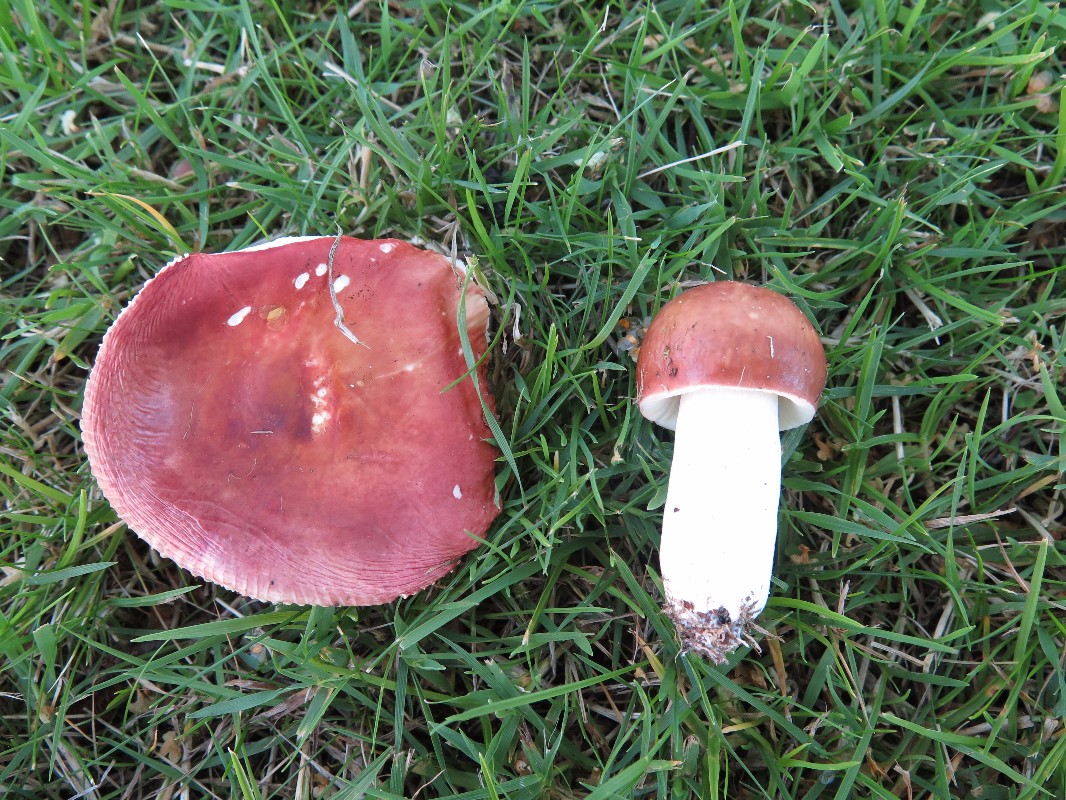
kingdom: Fungi
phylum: Basidiomycota
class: Agaricomycetes
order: Russulales
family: Russulaceae
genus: Russula
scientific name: Russula velenovskyi
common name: orangerød skørhat
